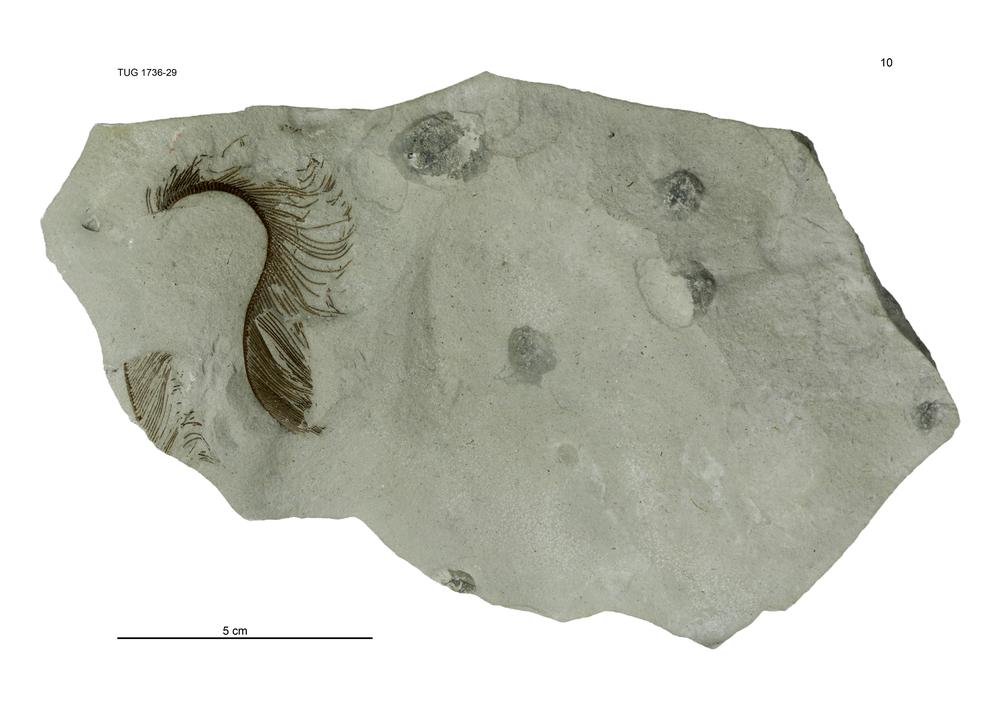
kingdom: Animalia
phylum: Echinodermata
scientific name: Echinodermata
